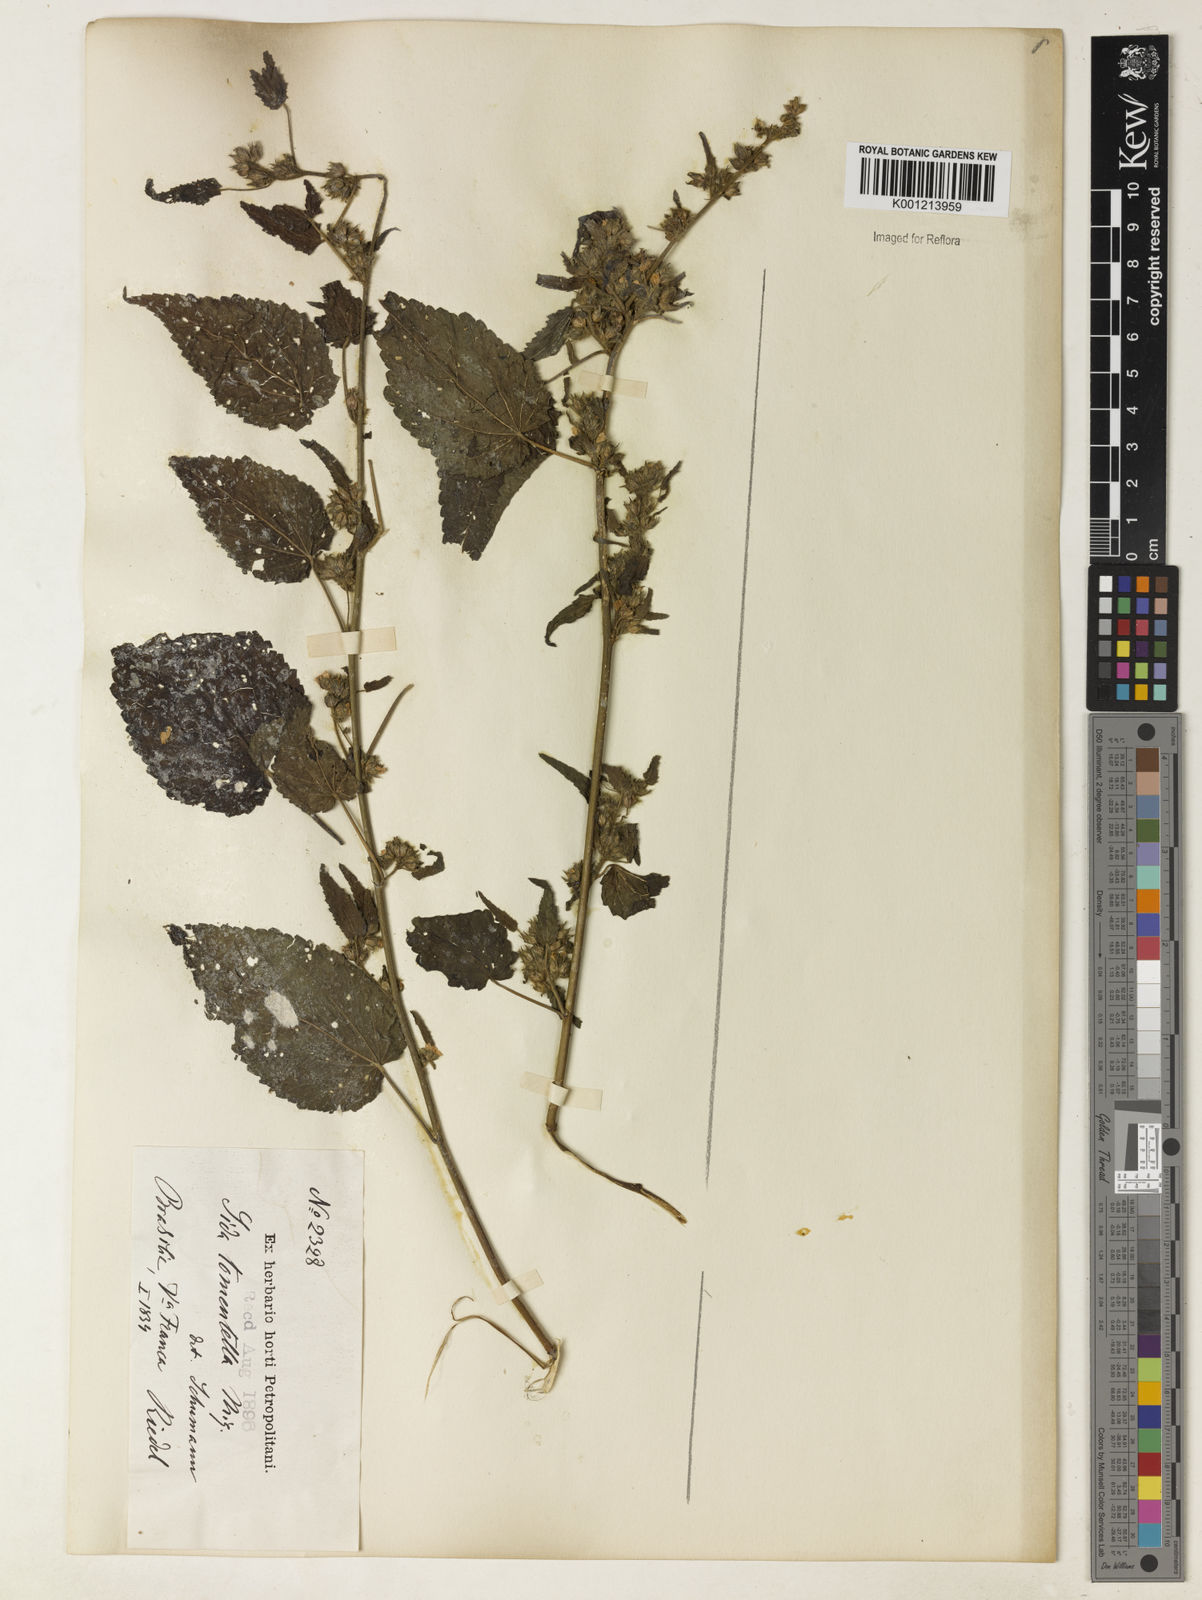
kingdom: Plantae
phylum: Tracheophyta
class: Magnoliopsida
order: Malvales
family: Malvaceae
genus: Sida
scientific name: Sida caudata
